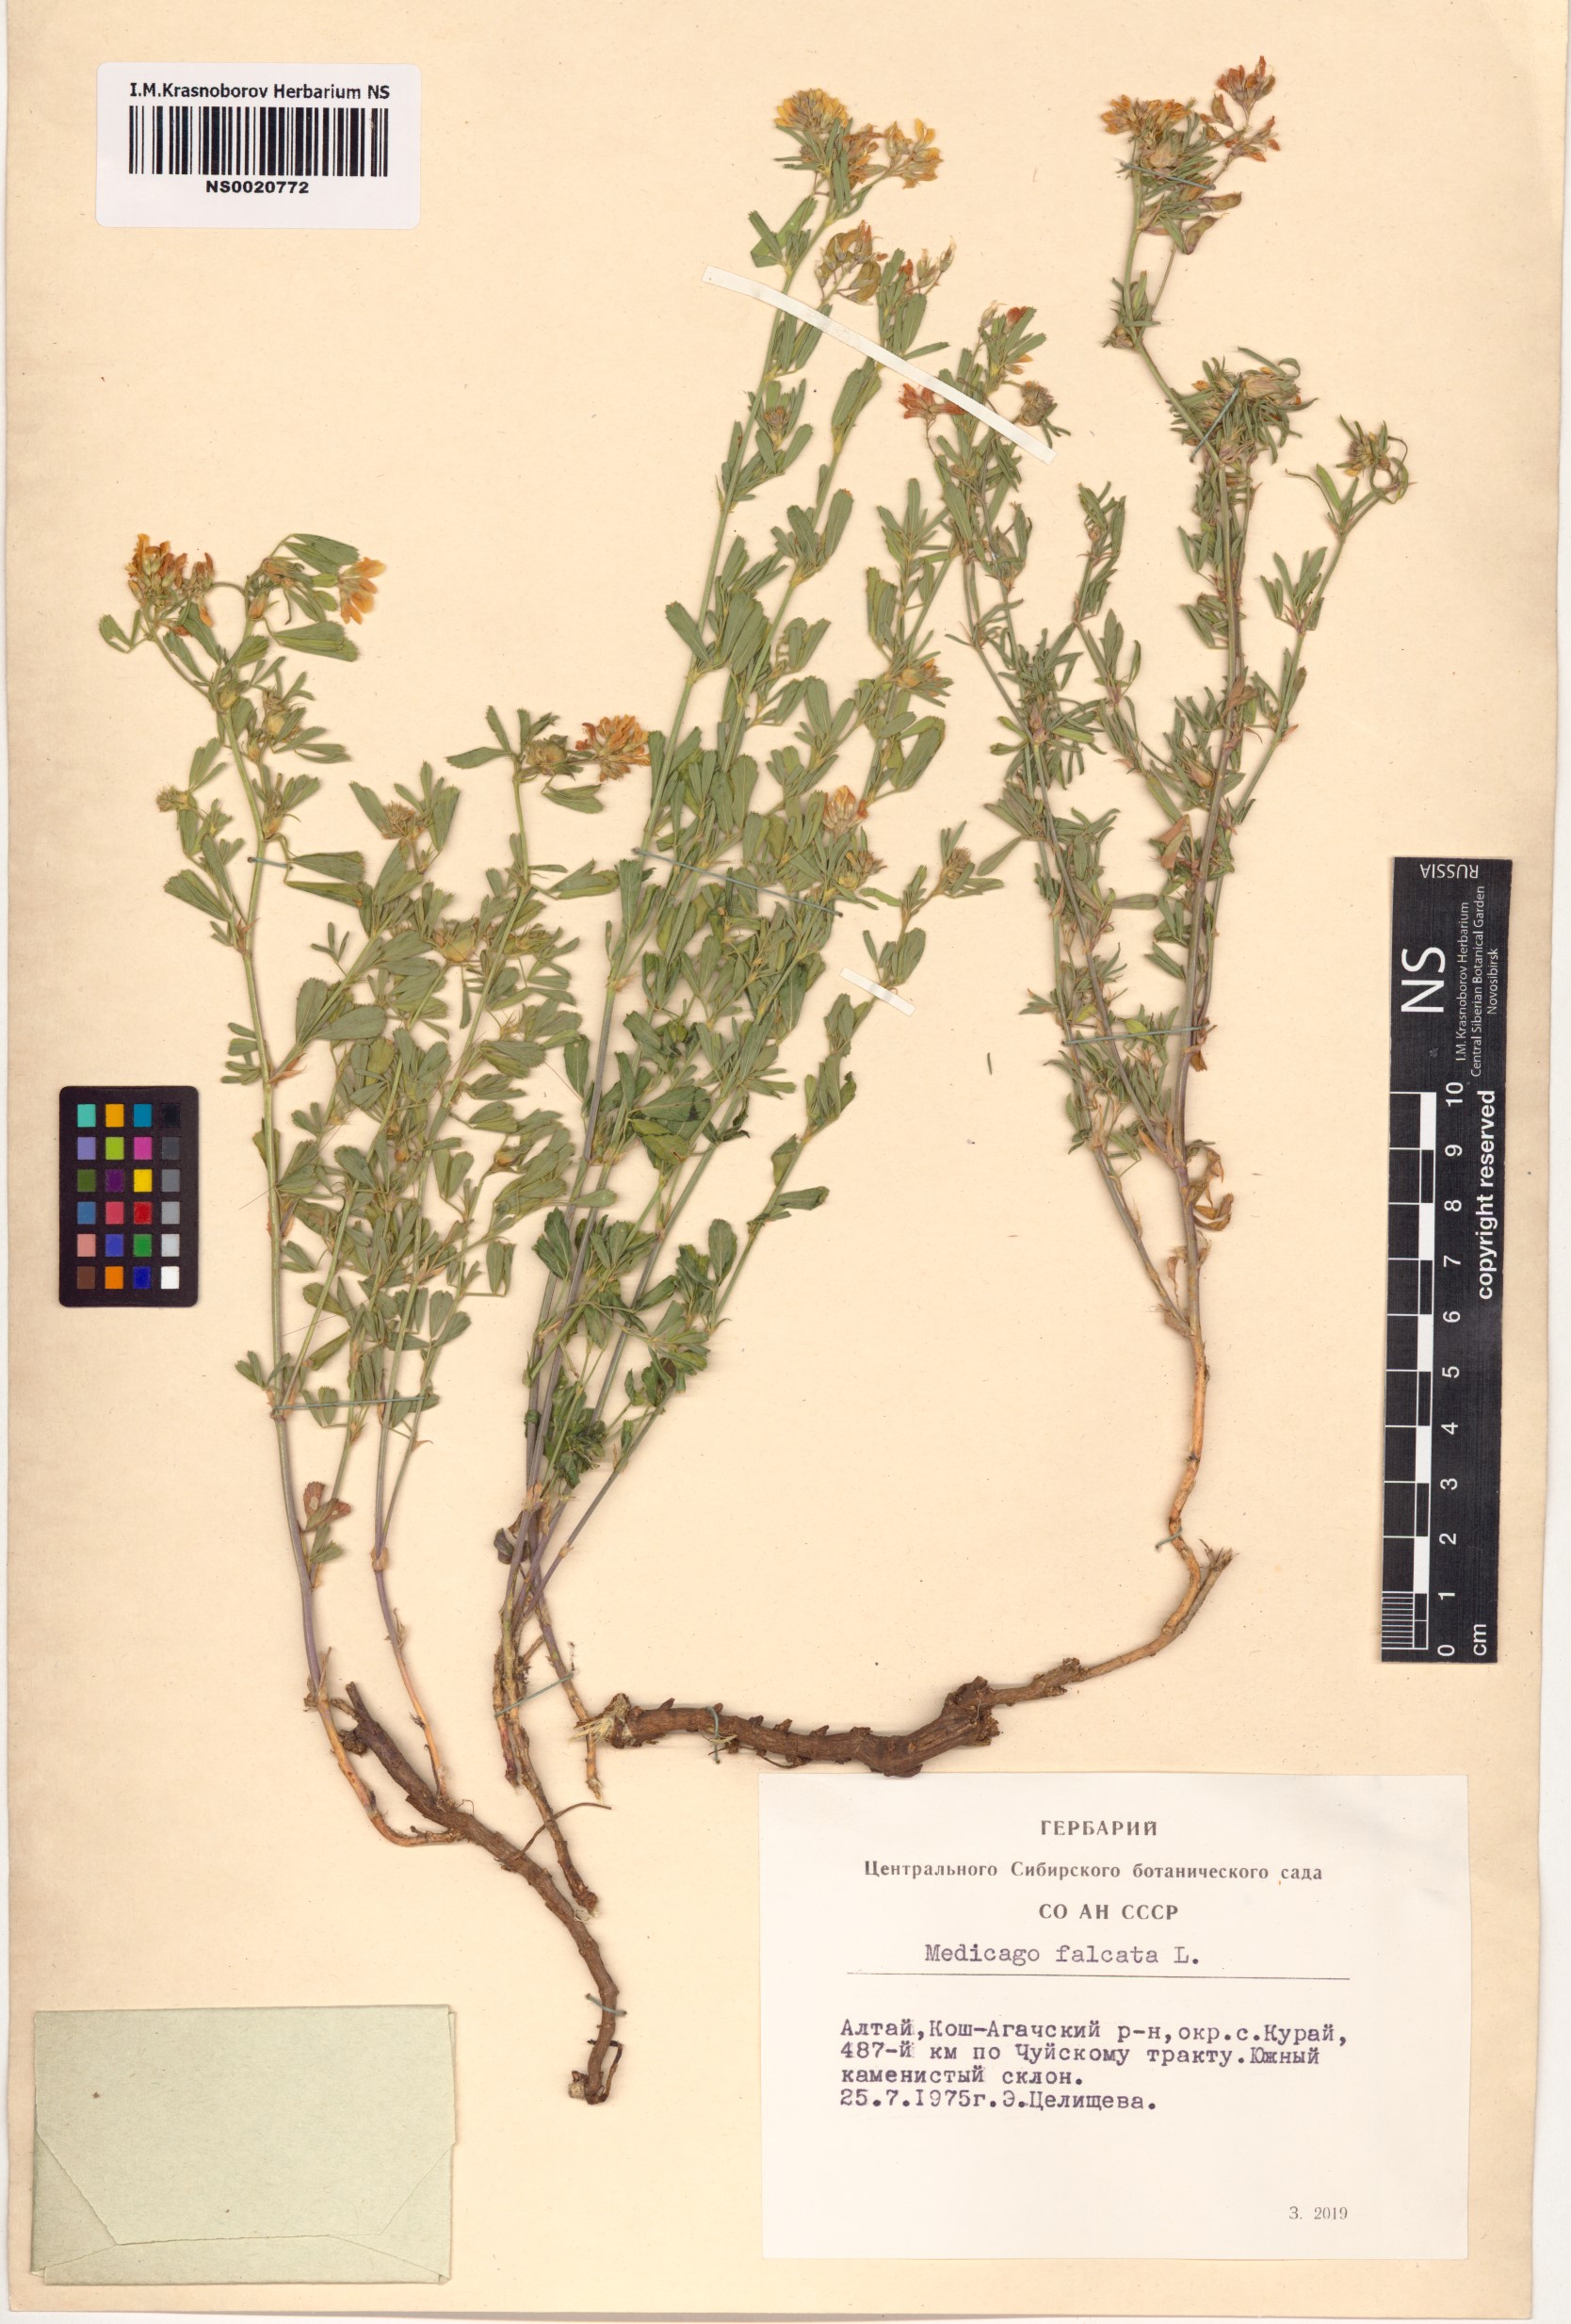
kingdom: Plantae
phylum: Tracheophyta
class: Magnoliopsida
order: Fabales
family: Fabaceae
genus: Medicago
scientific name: Medicago falcata
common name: Sickle medick
